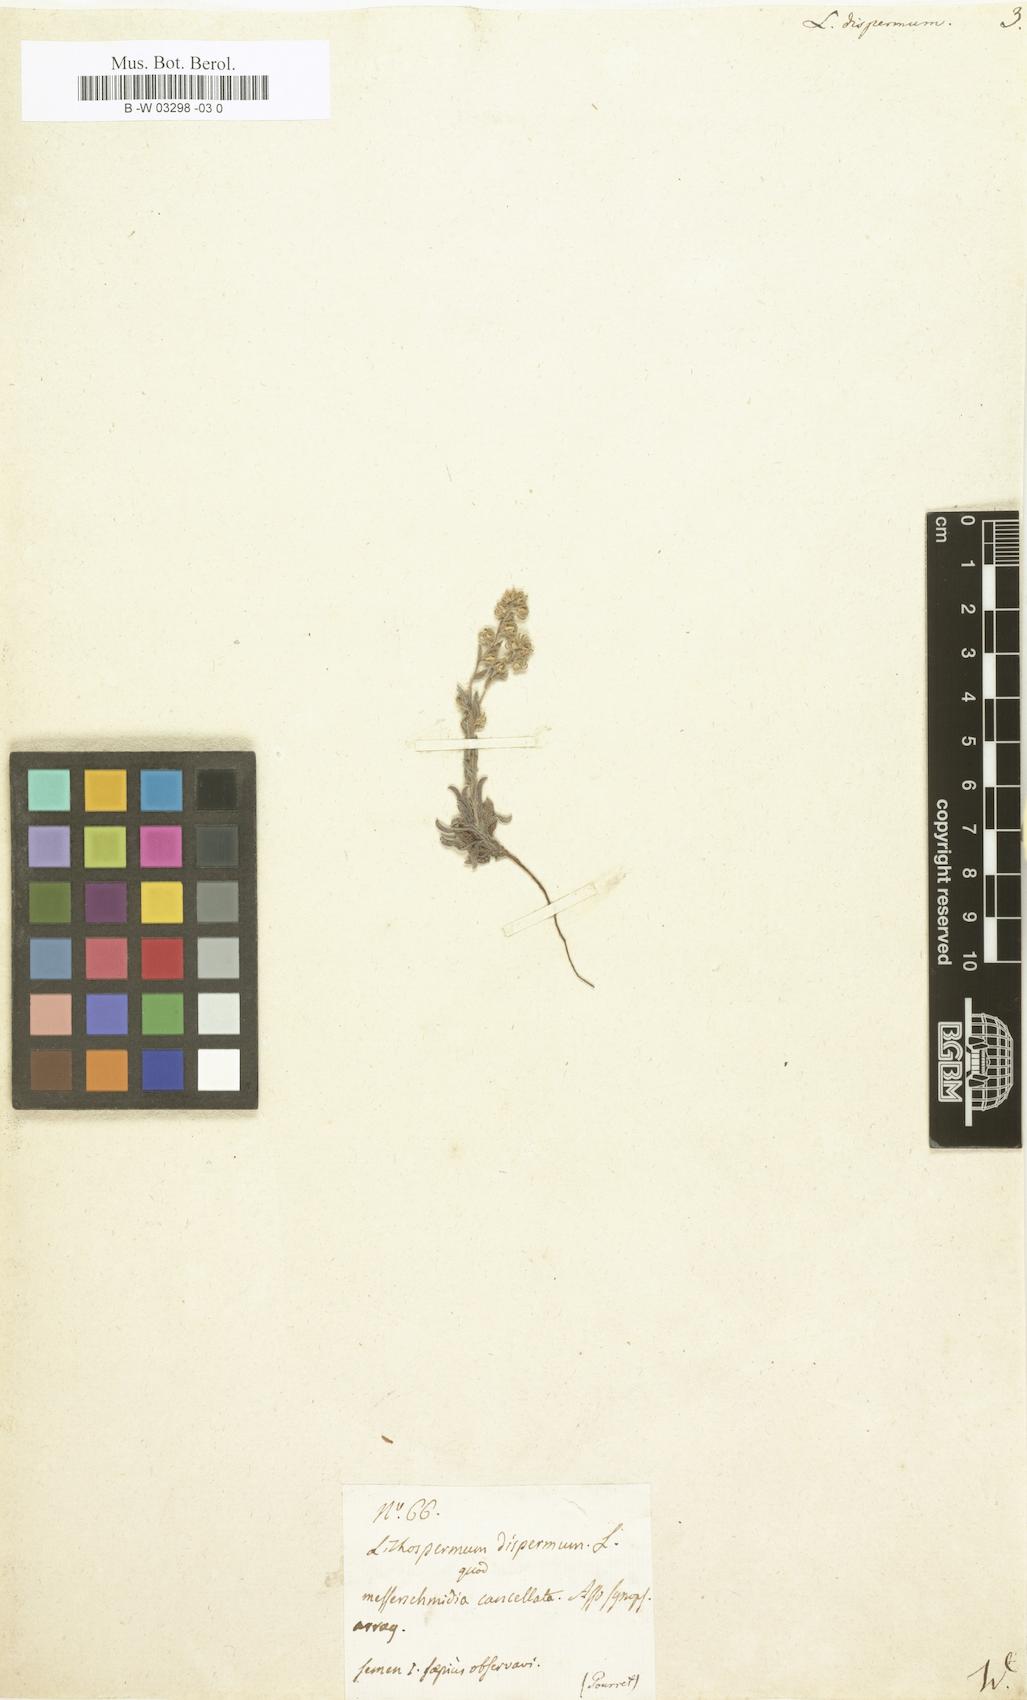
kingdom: Plantae
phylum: Tracheophyta
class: Magnoliopsida
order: Boraginales
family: Boraginaceae
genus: Rochelia
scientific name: Rochelia disperma
